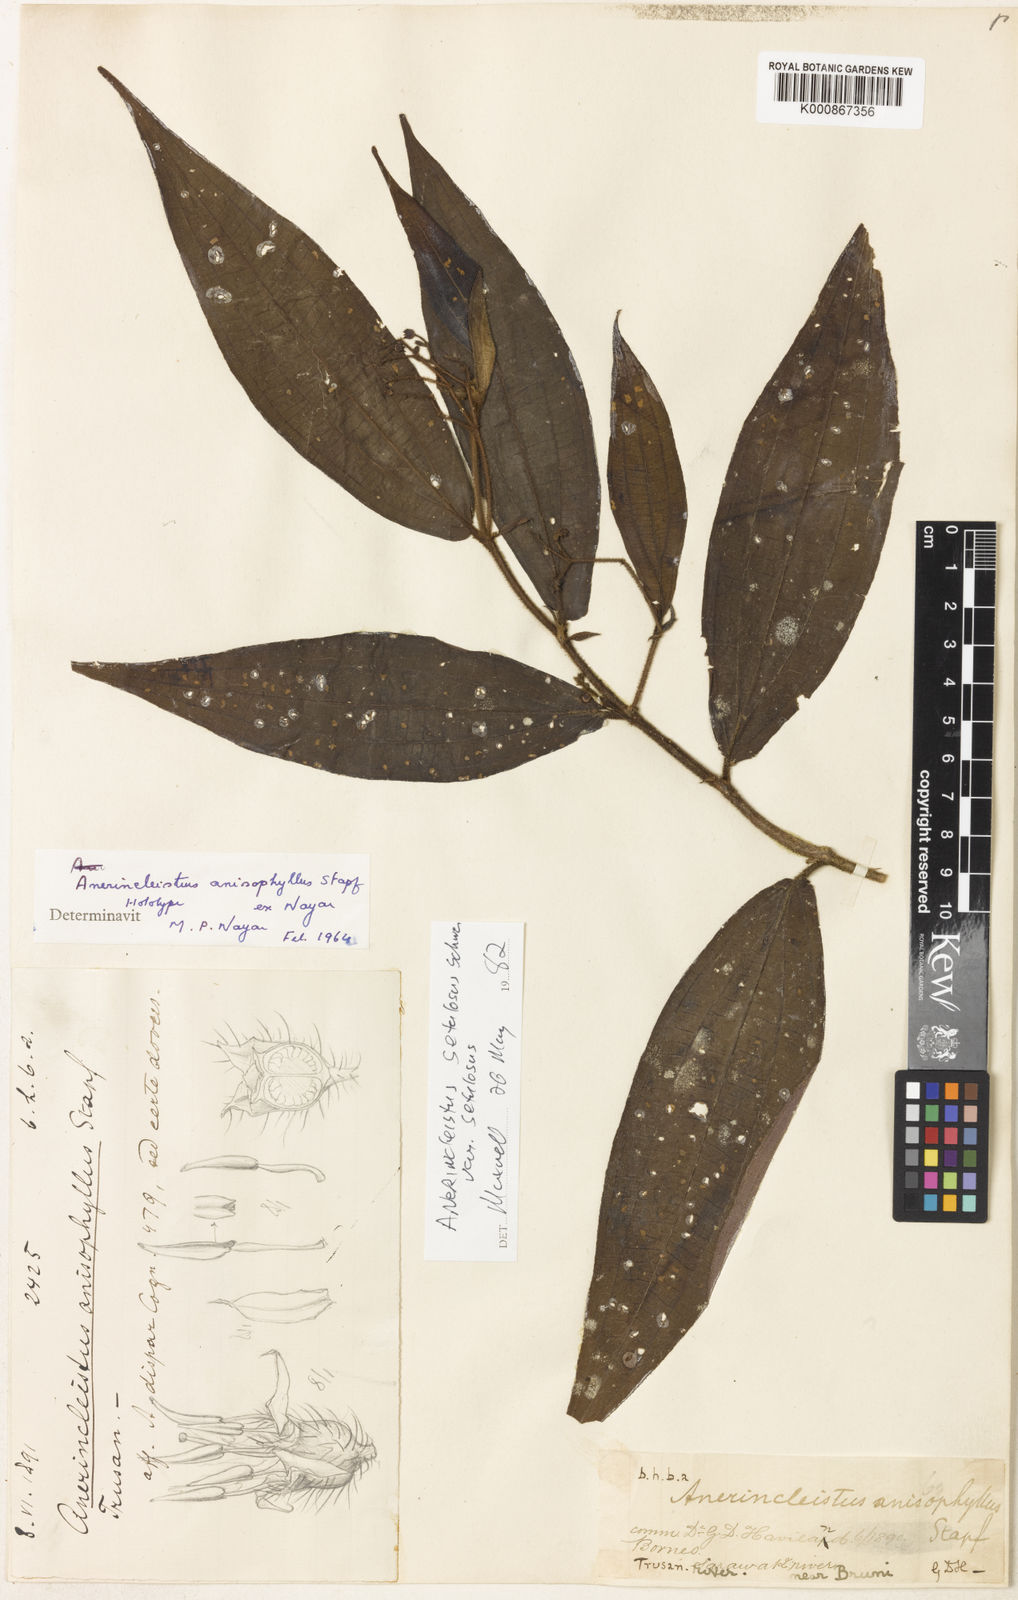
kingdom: Plantae
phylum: Tracheophyta
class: Magnoliopsida
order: Myrtales
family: Melastomataceae
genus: Anerincleistus
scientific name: Anerincleistus
